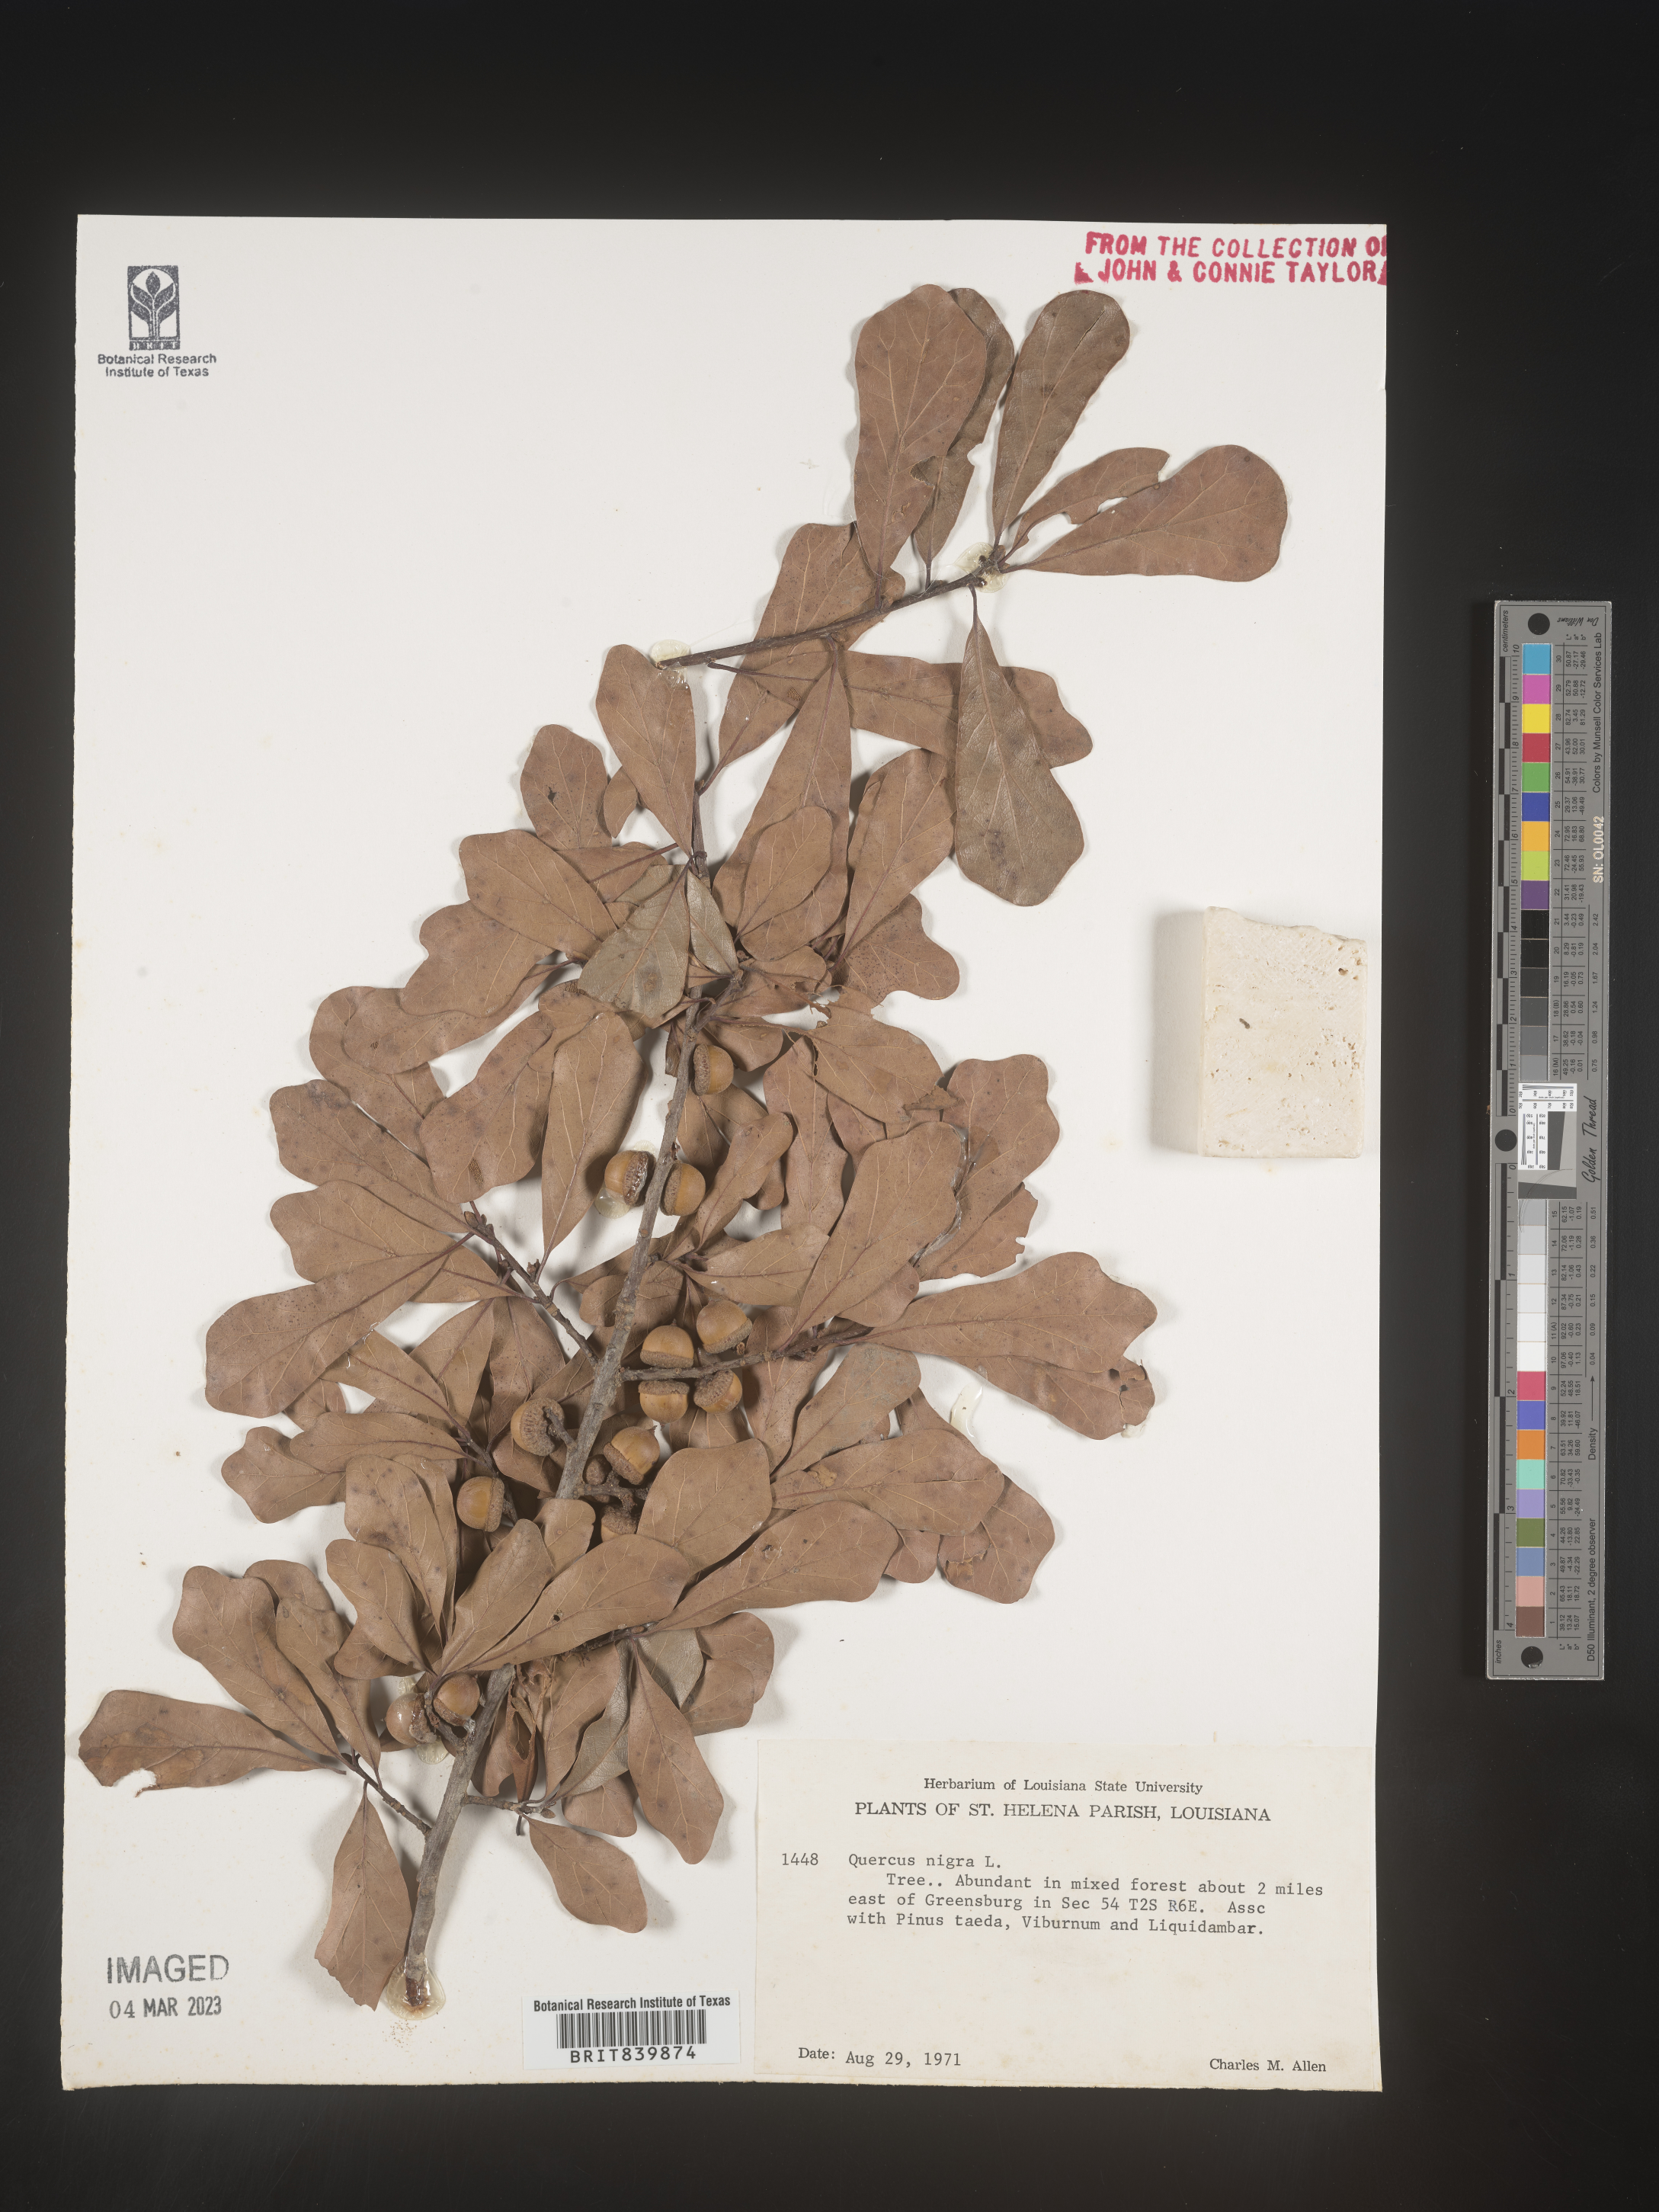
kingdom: Plantae
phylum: Tracheophyta
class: Magnoliopsida
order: Fagales
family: Fagaceae
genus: Quercus
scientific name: Quercus nigra
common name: Water oak
